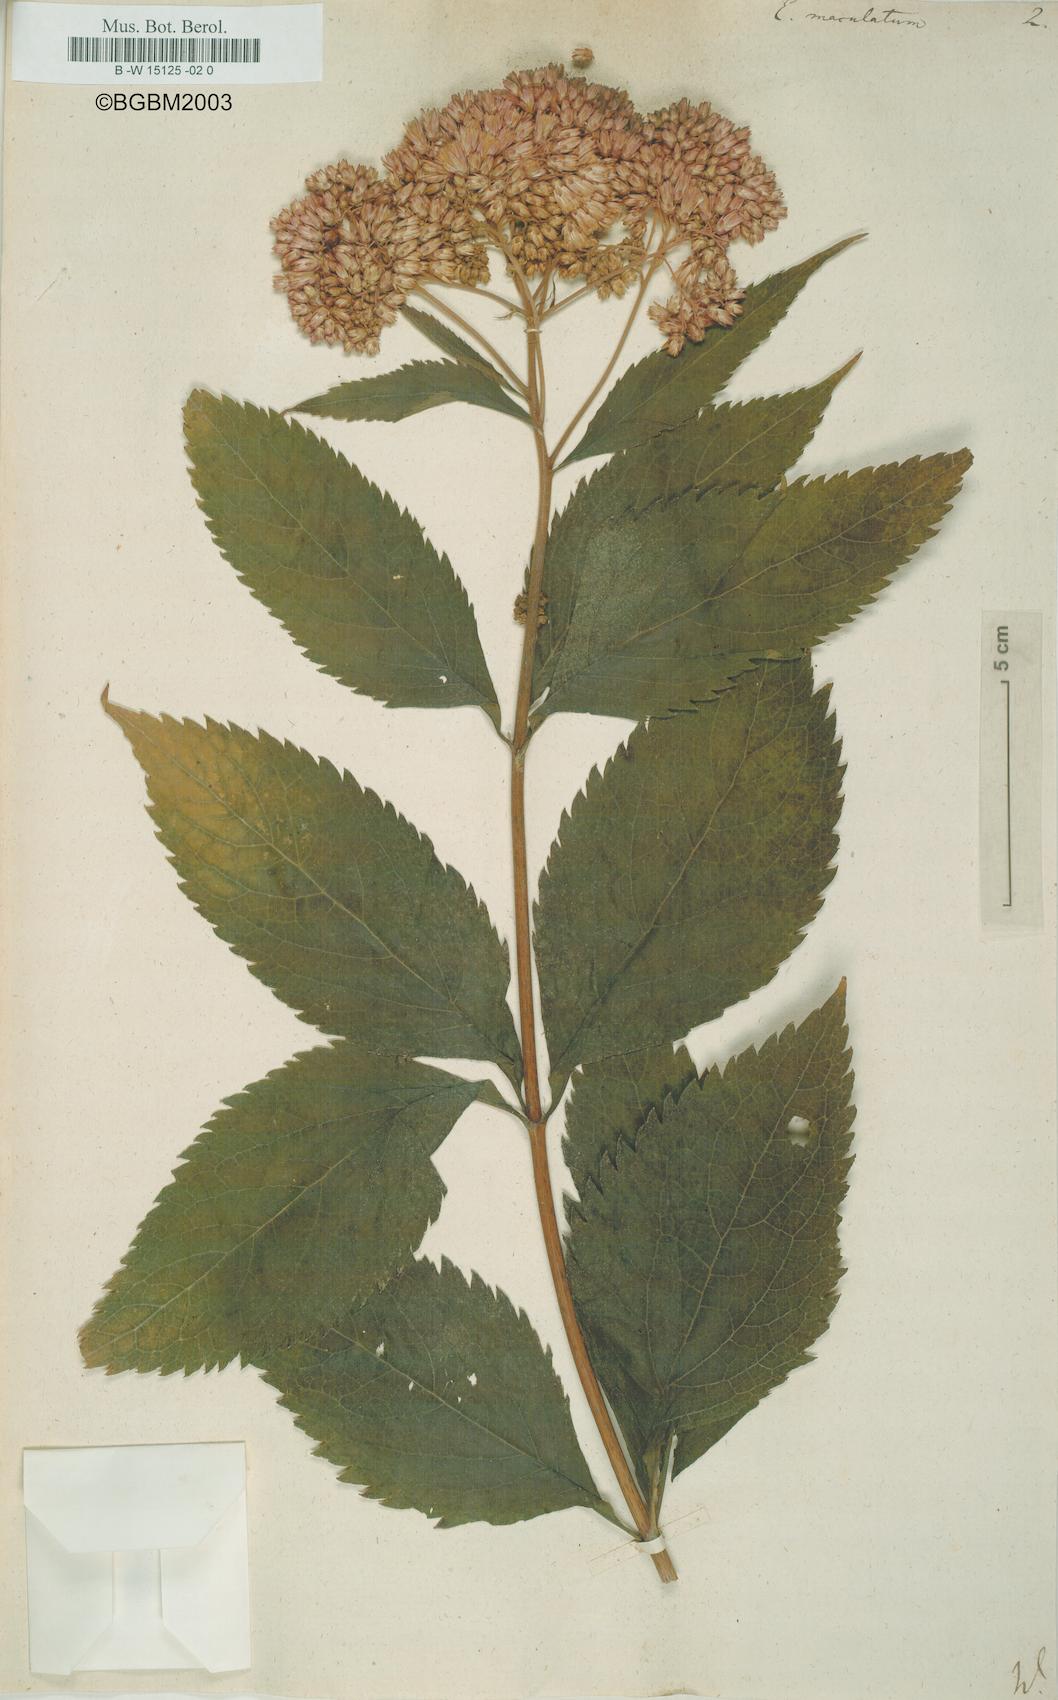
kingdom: Plantae
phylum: Tracheophyta
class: Magnoliopsida
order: Asterales
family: Asteraceae
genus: Eutrochium
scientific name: Eutrochium maculatum
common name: Spotted joe pye weed
